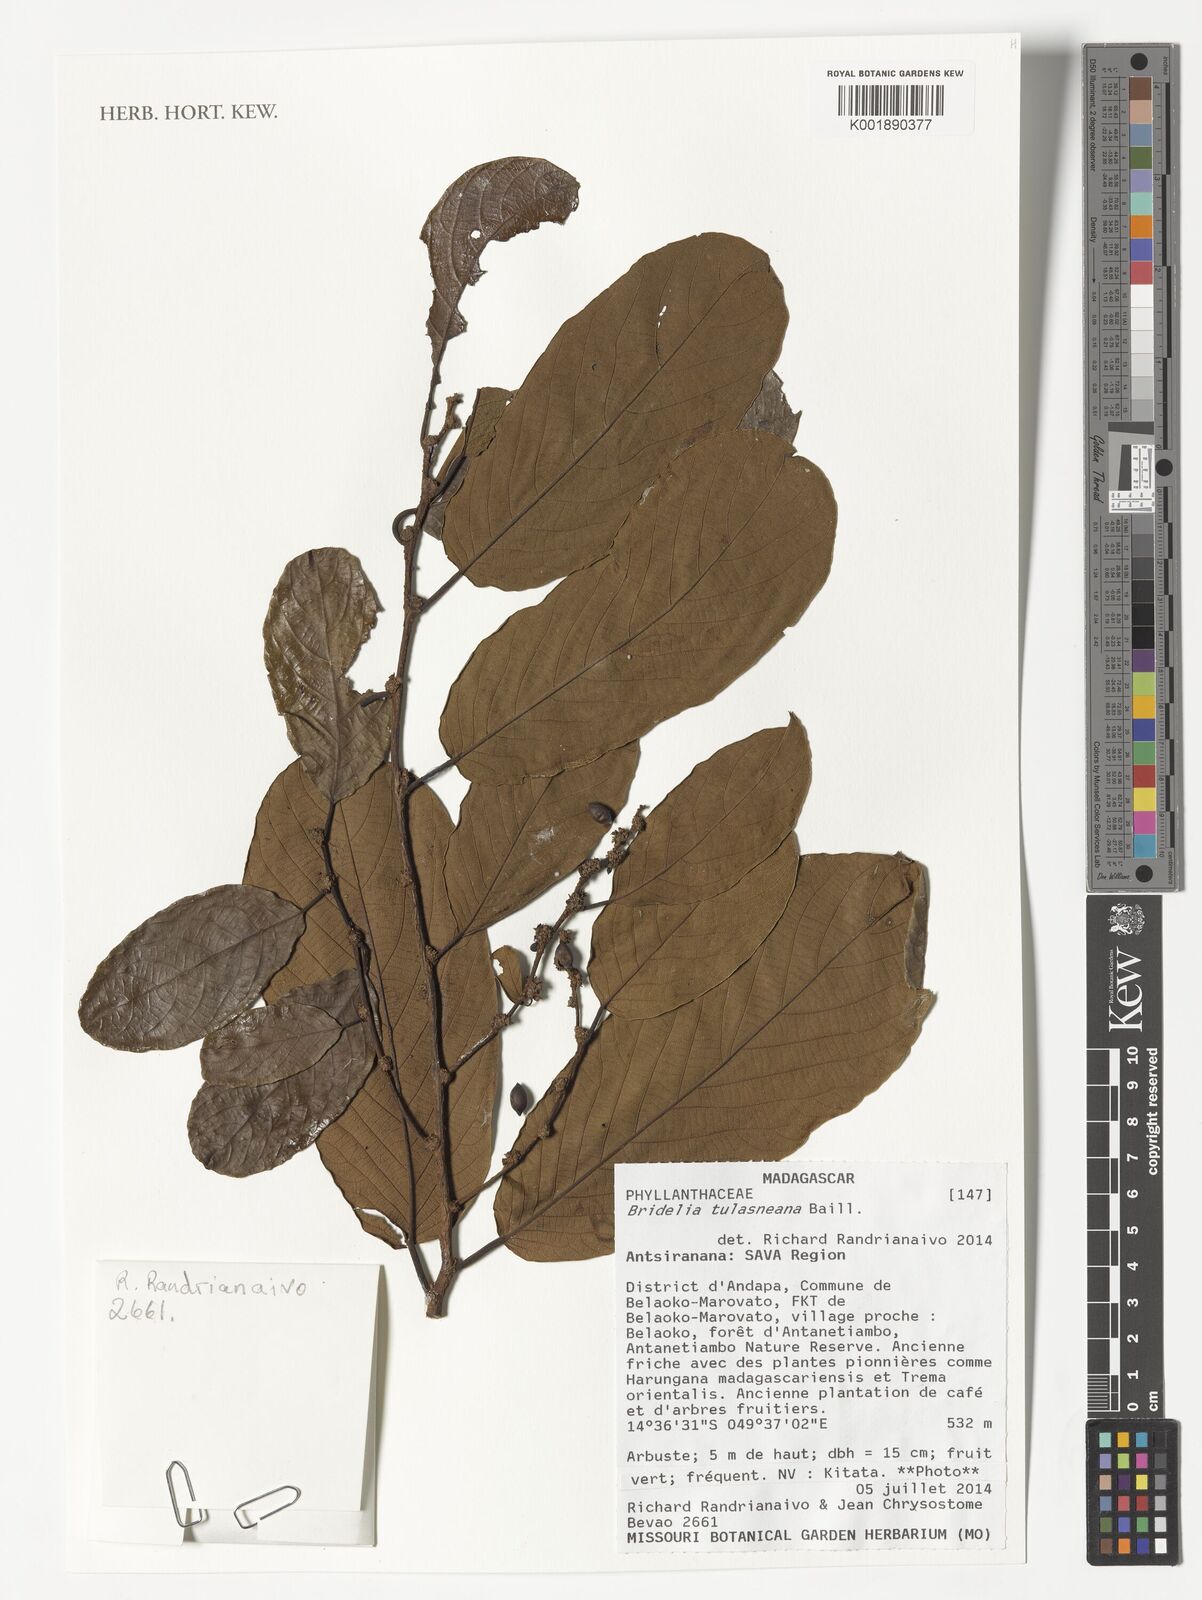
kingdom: Plantae
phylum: Tracheophyta
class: Magnoliopsida
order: Malpighiales
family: Phyllanthaceae
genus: Bridelia
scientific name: Bridelia tulasneana
